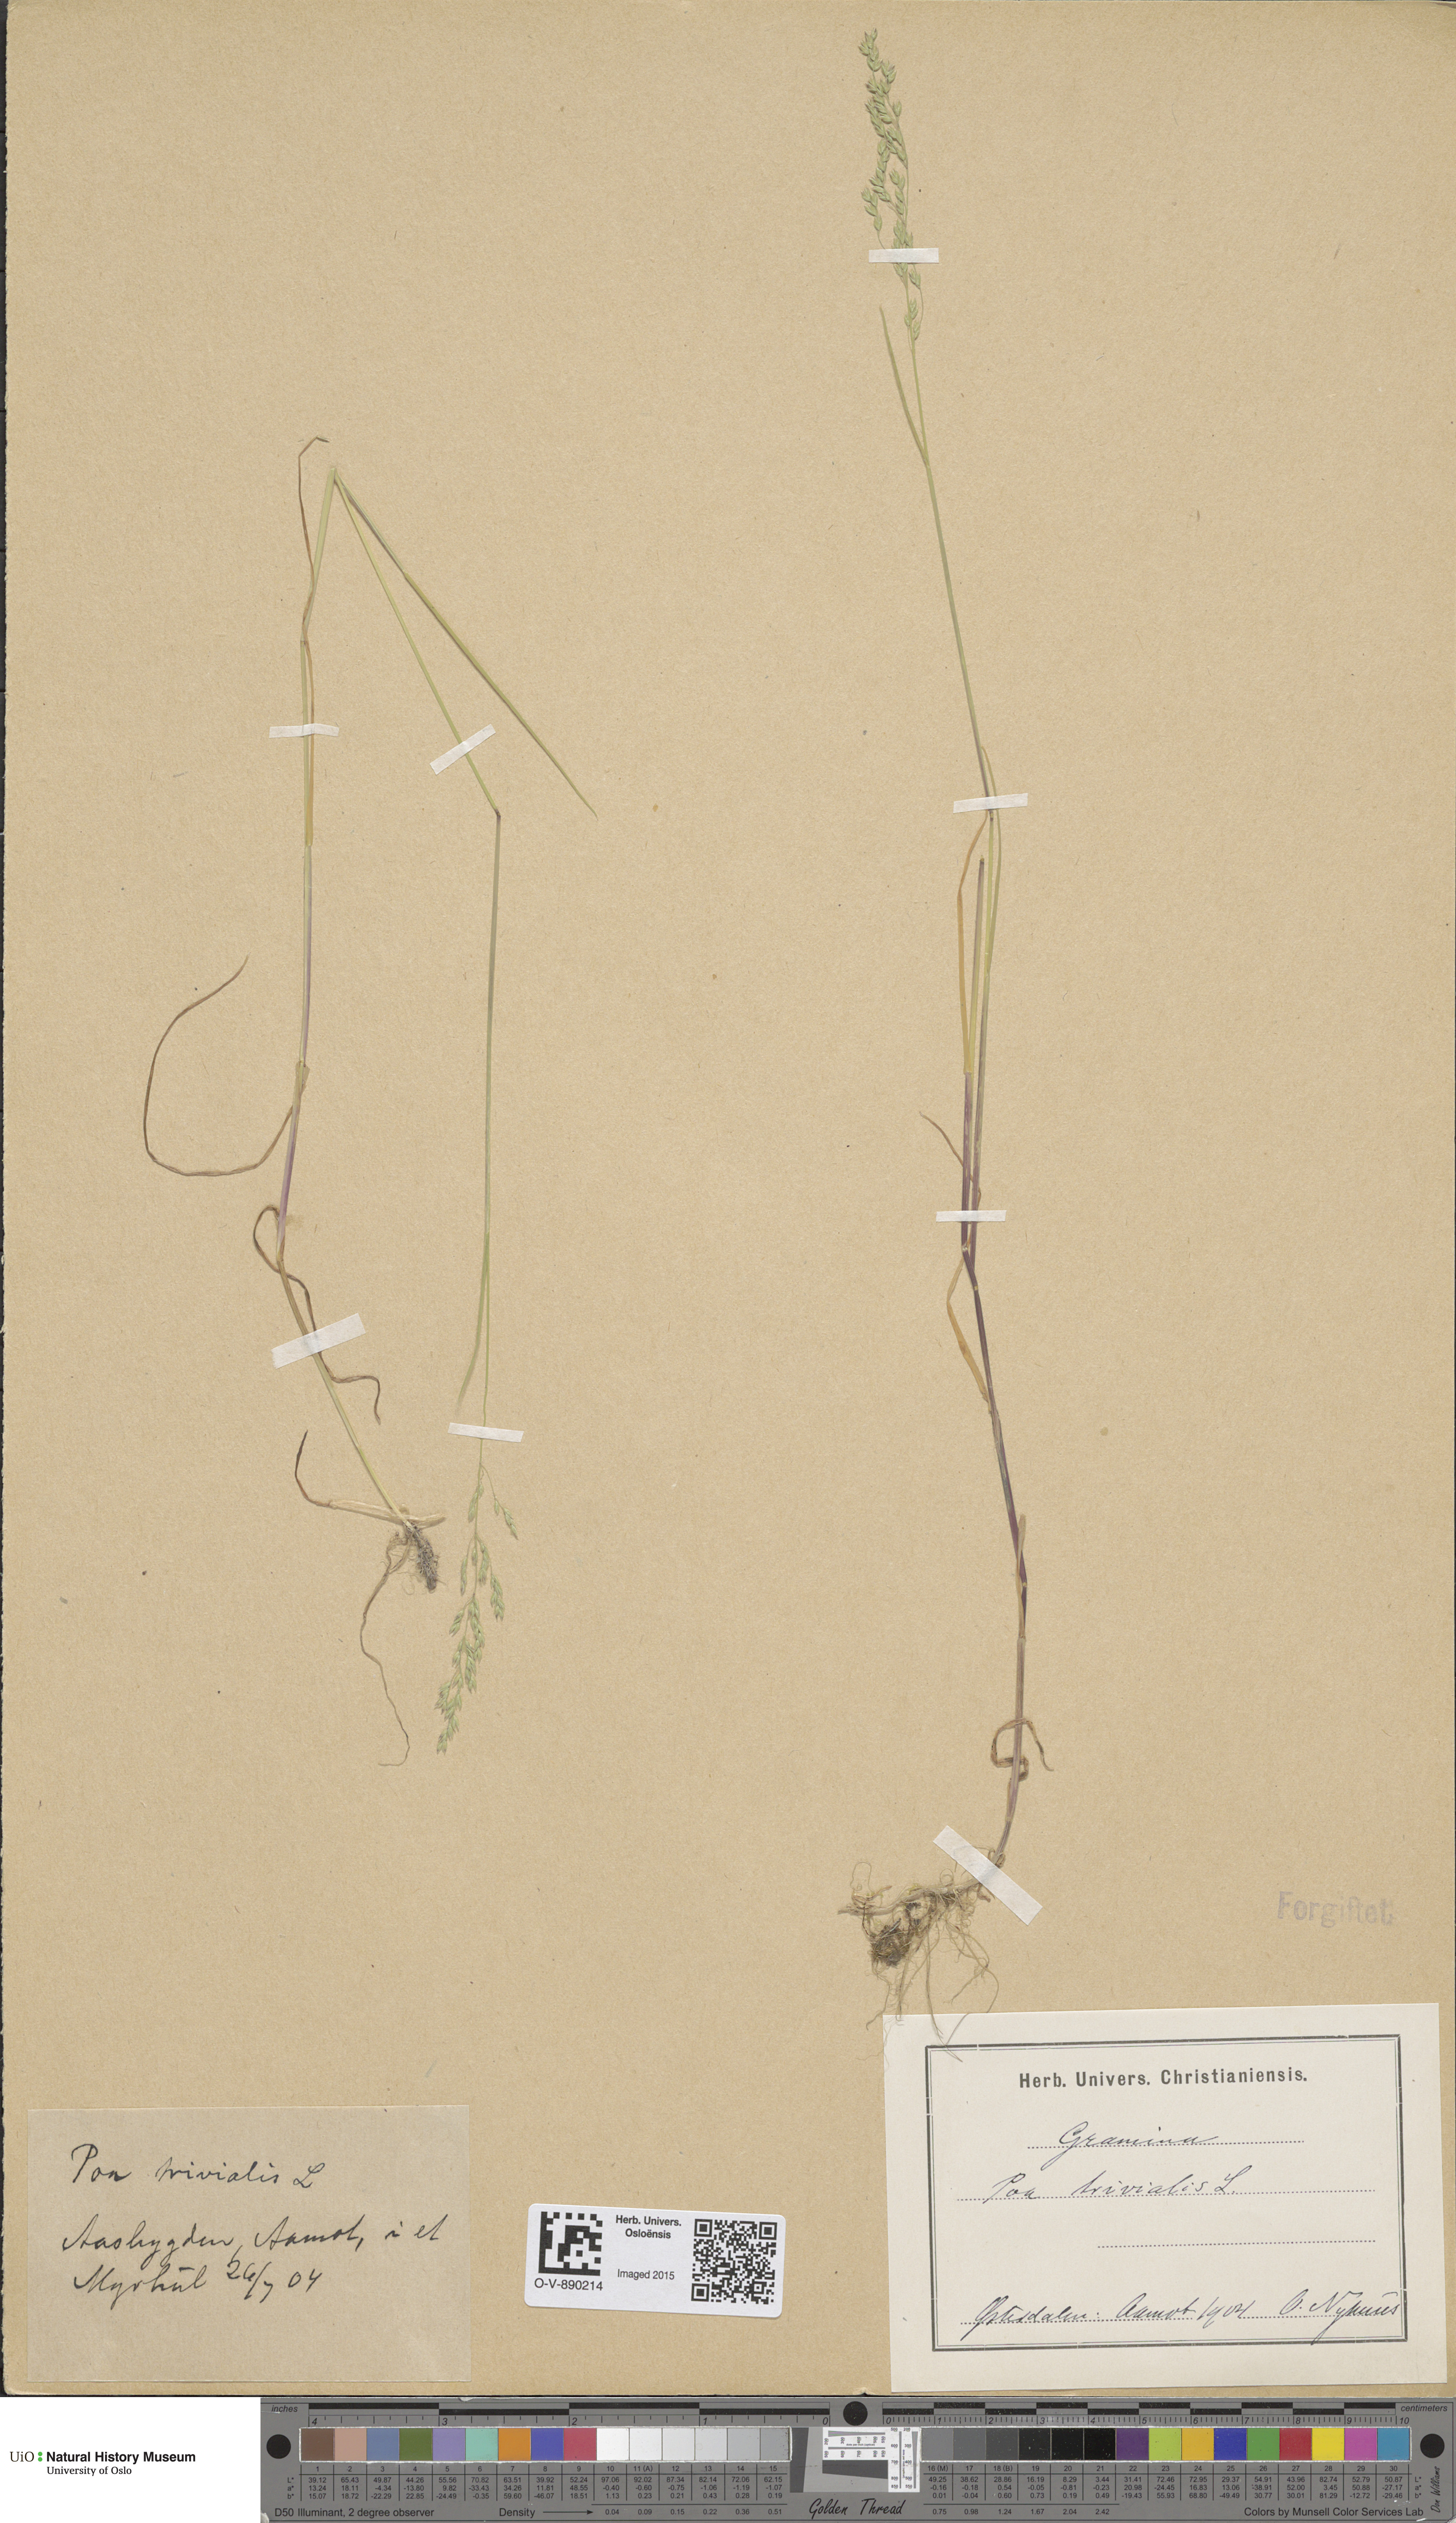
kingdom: Plantae
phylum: Tracheophyta
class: Liliopsida
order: Poales
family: Poaceae
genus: Poa
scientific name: Poa trivialis
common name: Rough bluegrass
